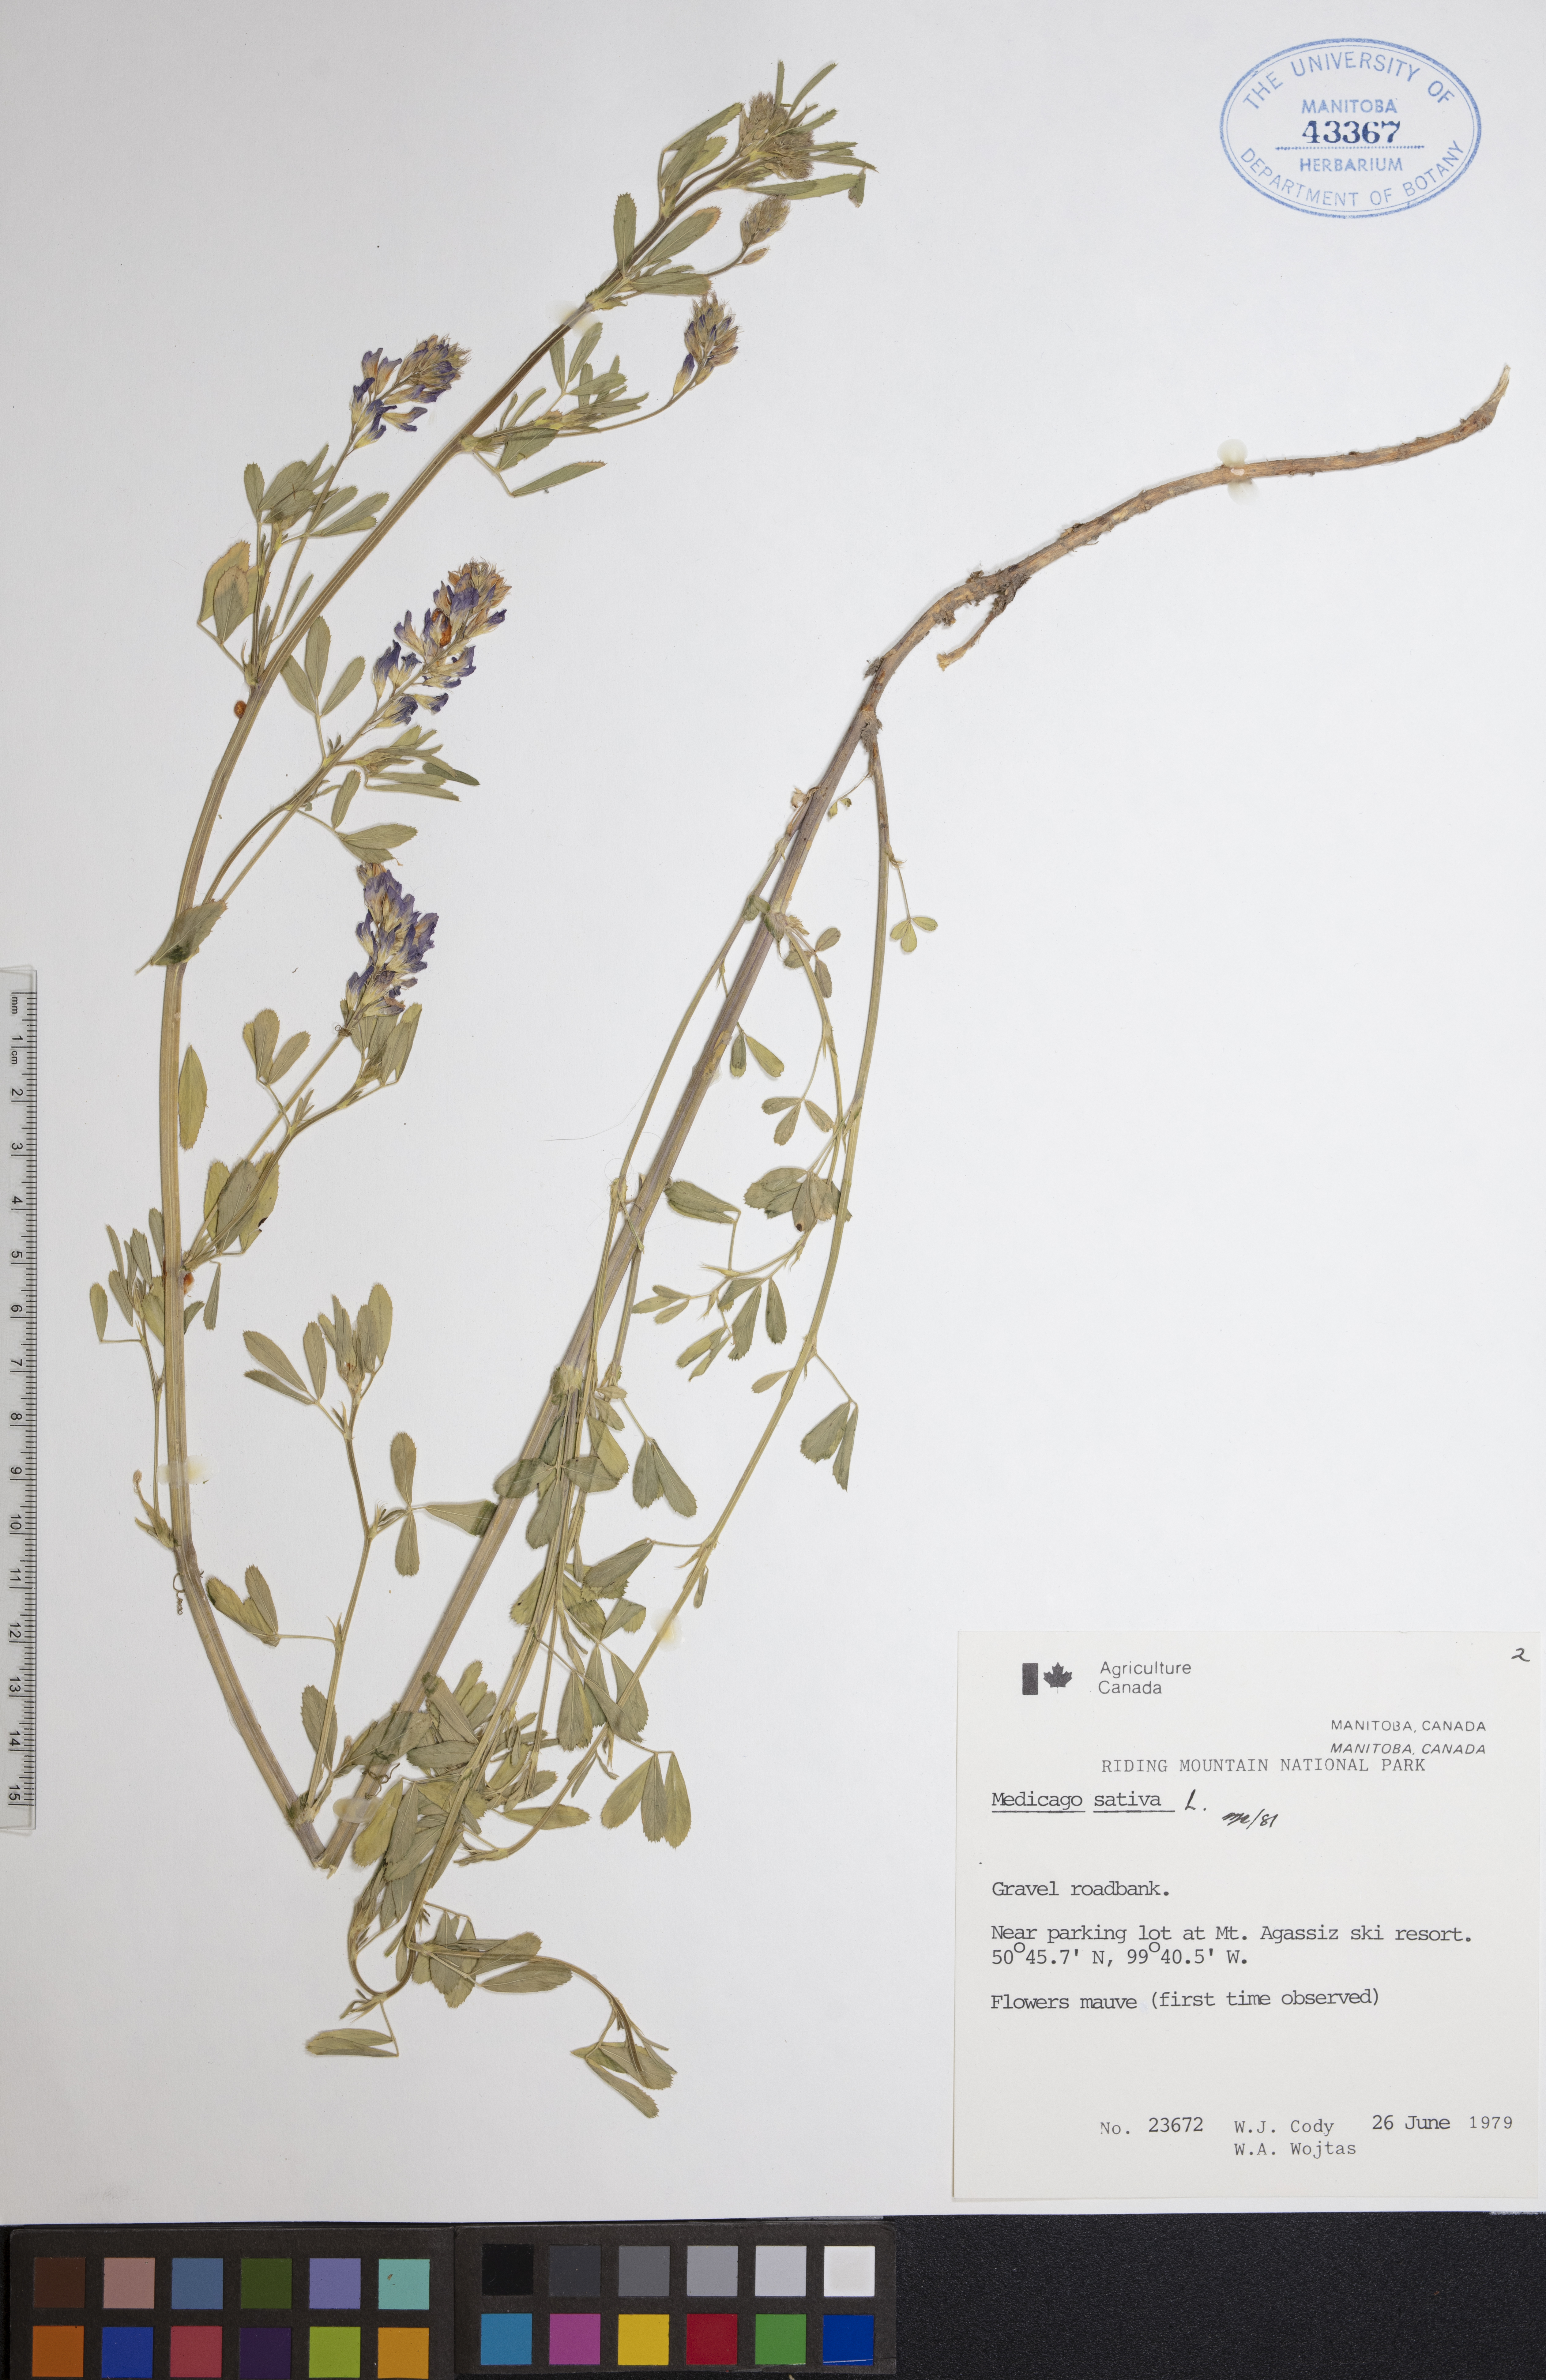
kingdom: Plantae
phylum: Tracheophyta
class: Magnoliopsida
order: Fabales
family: Fabaceae
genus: Medicago
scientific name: Medicago sativa
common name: Alfalfa
